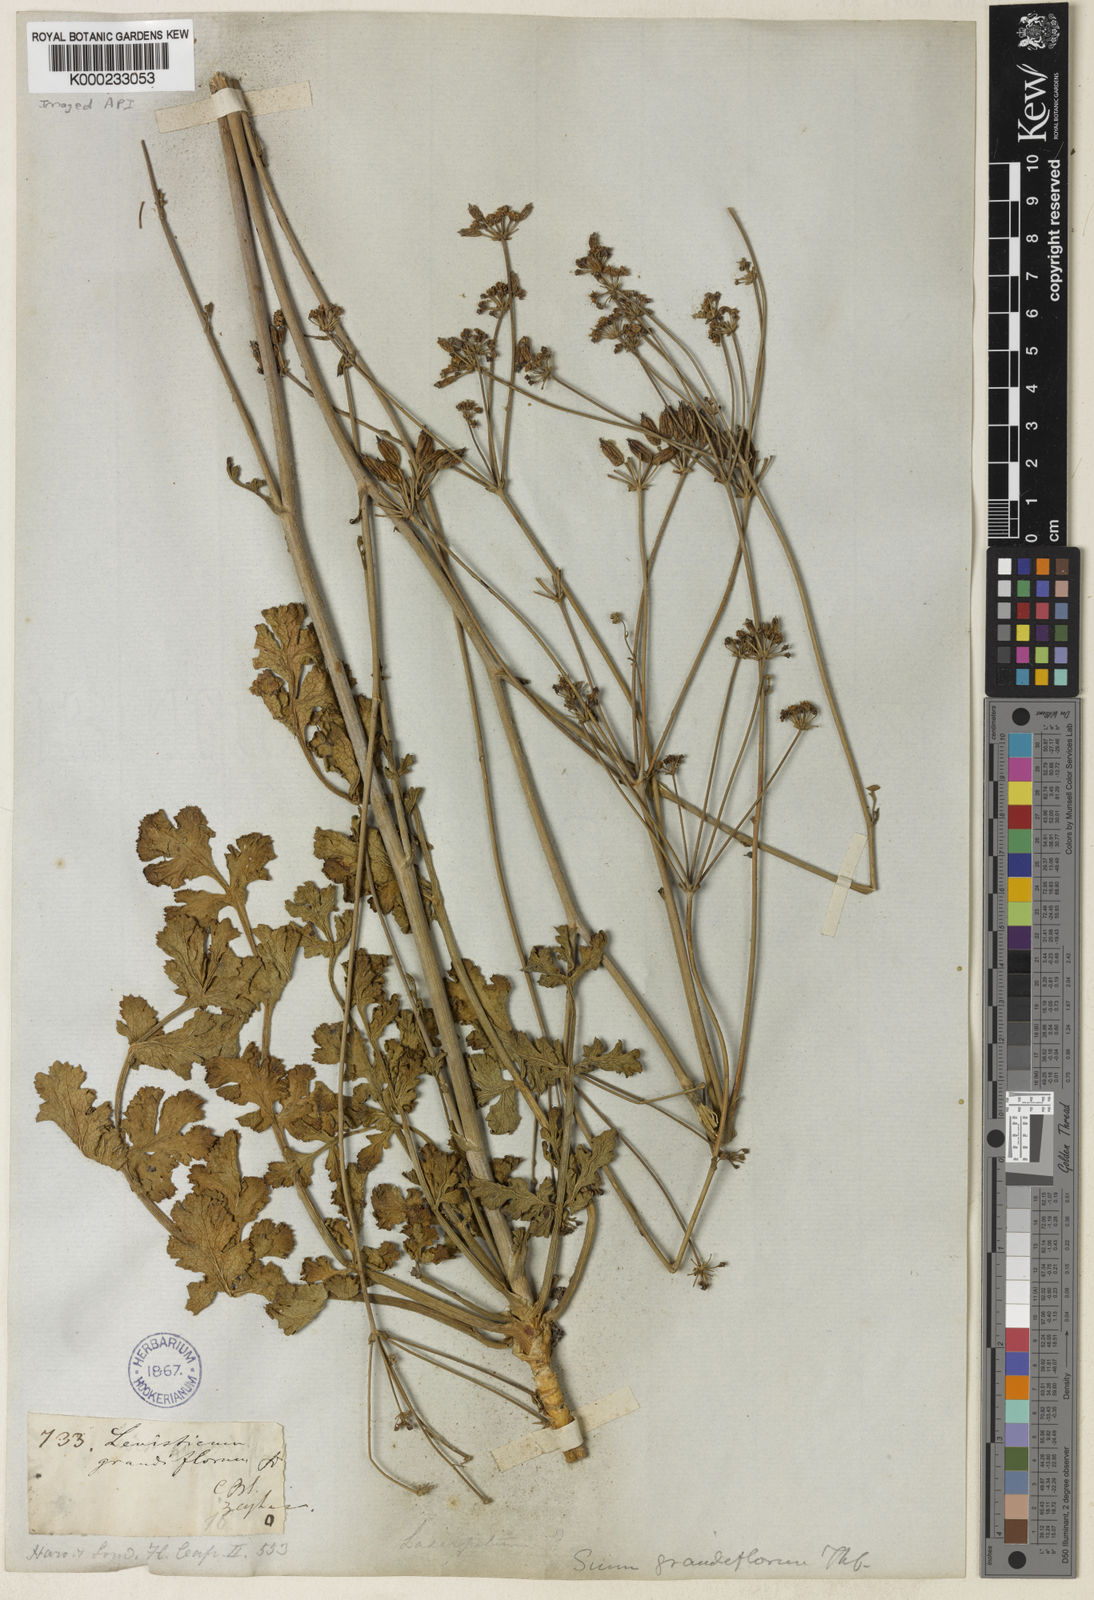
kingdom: Plantae
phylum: Tracheophyta
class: Magnoliopsida
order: Apiales
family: Apiaceae
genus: Annesorhiza
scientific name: Annesorhiza
